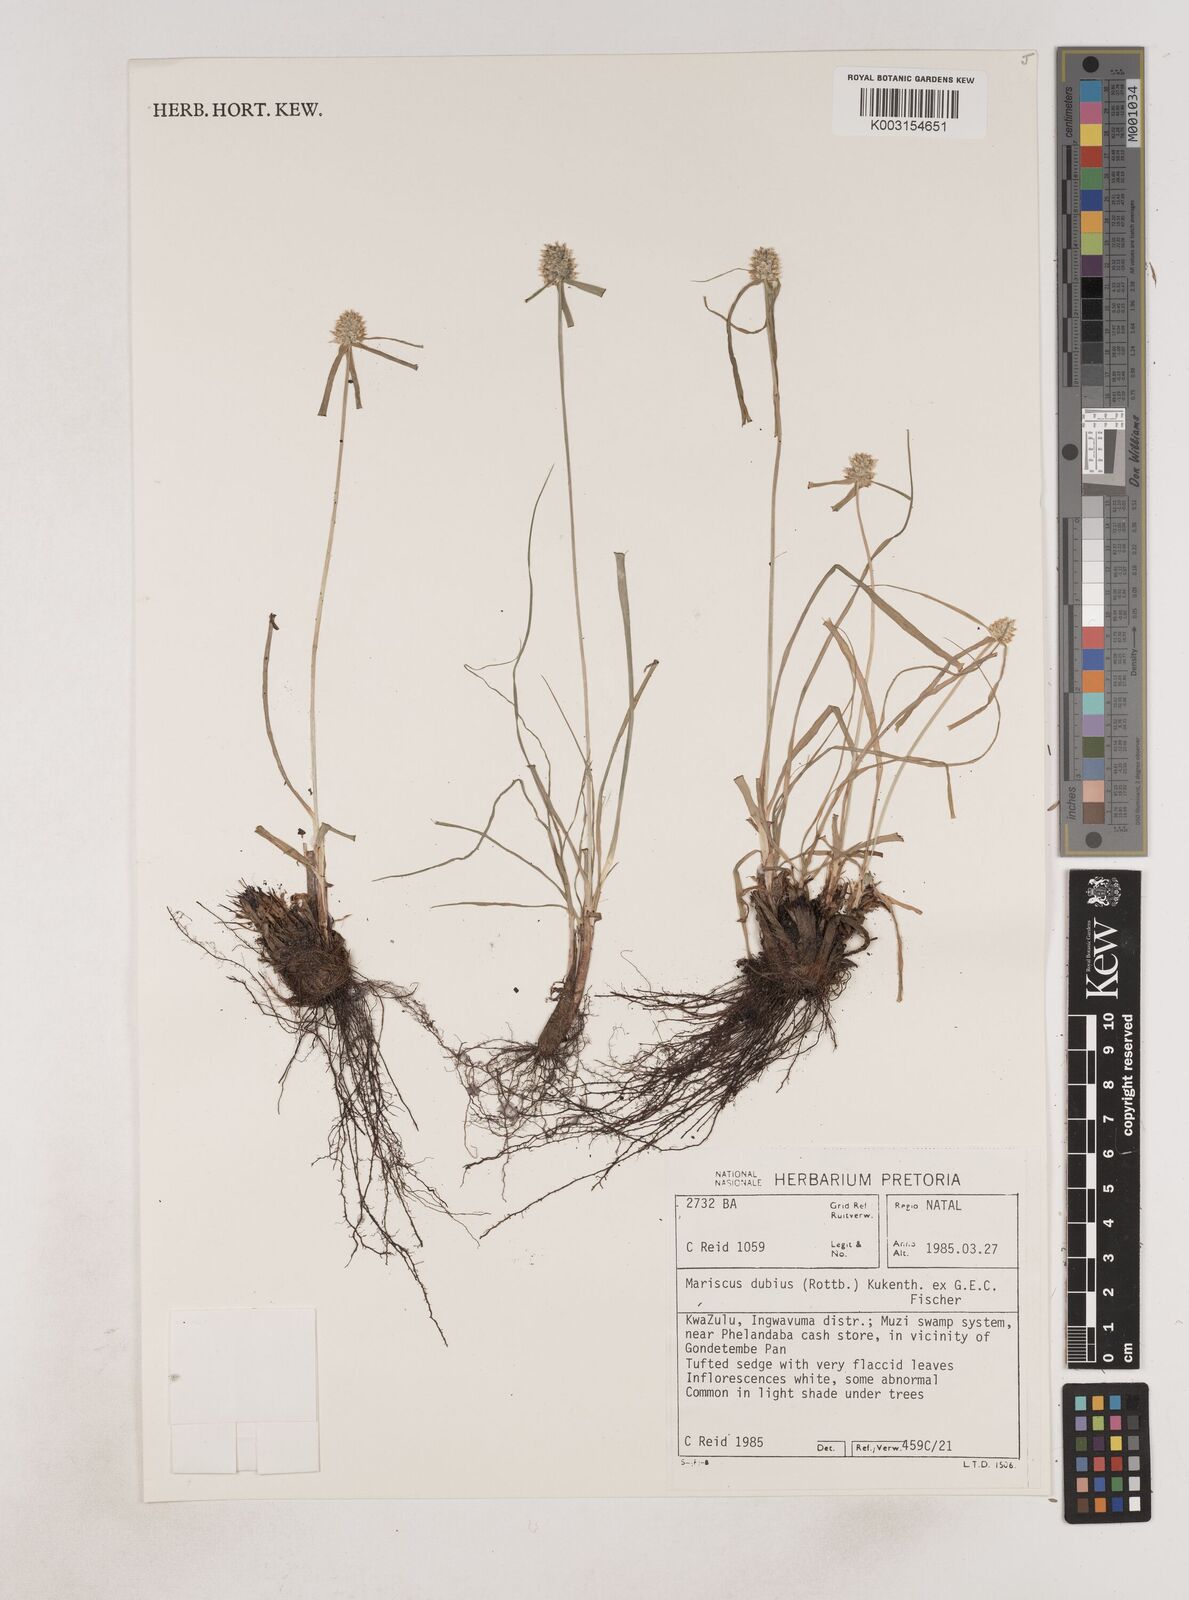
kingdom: Plantae
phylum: Tracheophyta
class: Liliopsida
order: Poales
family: Cyperaceae
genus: Cyperus
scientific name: Cyperus dubius
